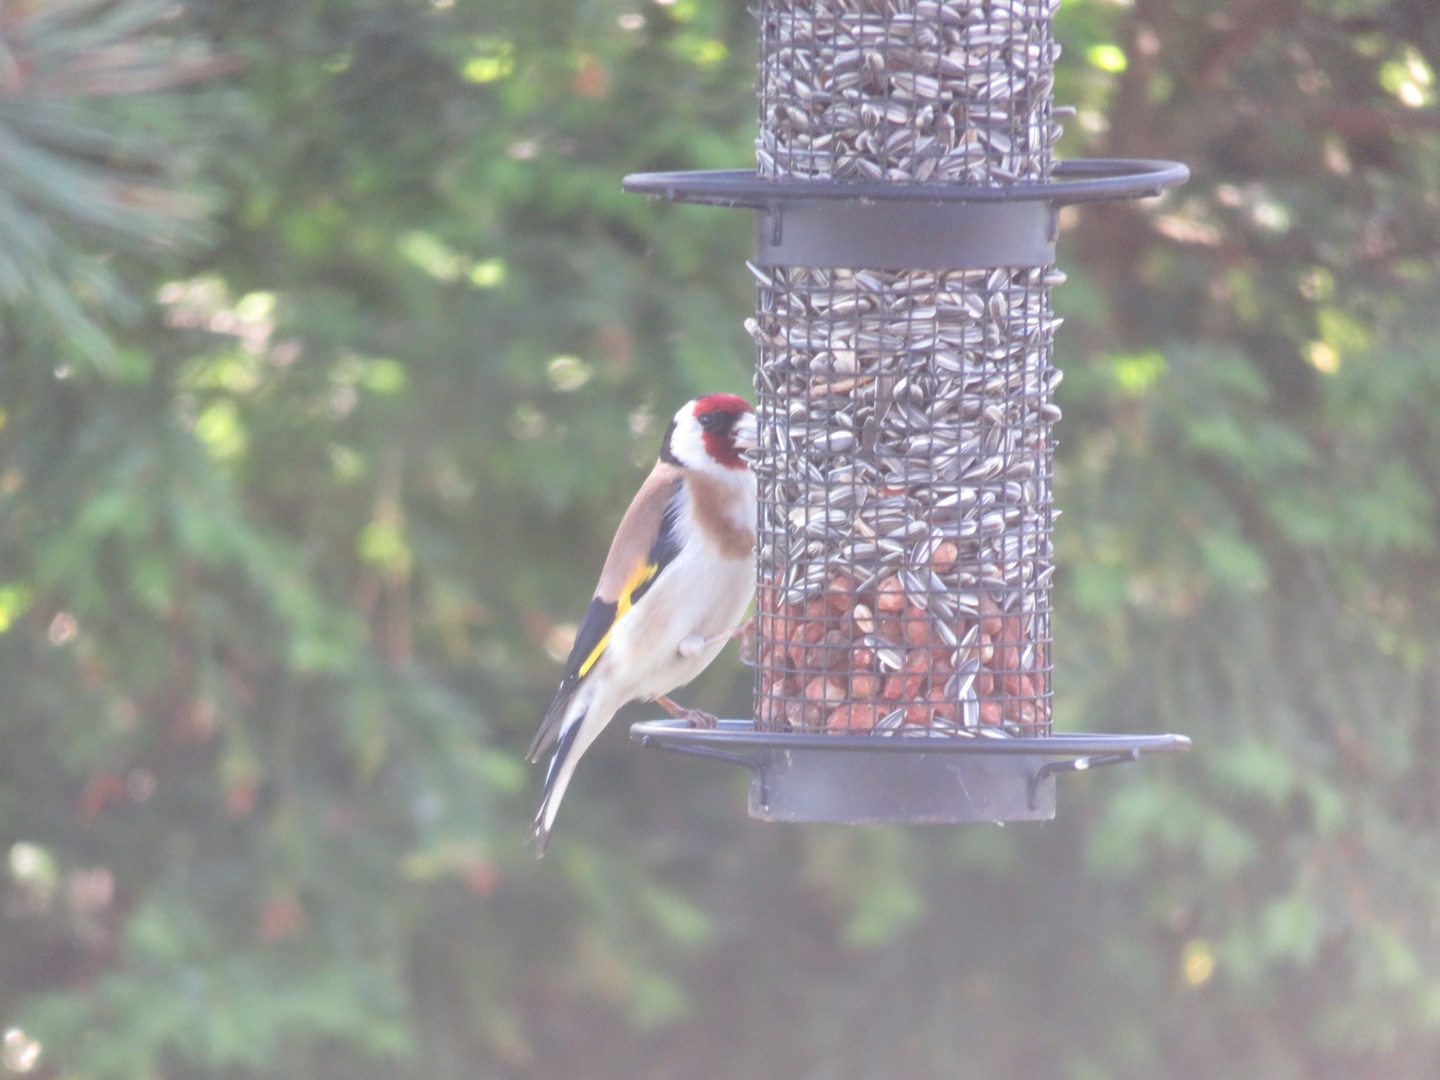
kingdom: Animalia
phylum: Chordata
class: Aves
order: Passeriformes
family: Fringillidae
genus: Carduelis
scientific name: Carduelis carduelis
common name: Stillits
